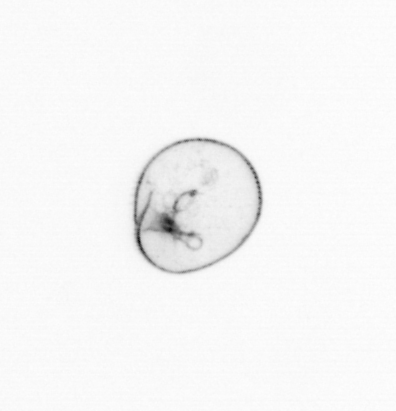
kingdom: Chromista
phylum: Myzozoa
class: Dinophyceae
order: Noctilucales
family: Noctilucaceae
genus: Noctiluca
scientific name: Noctiluca scintillans
